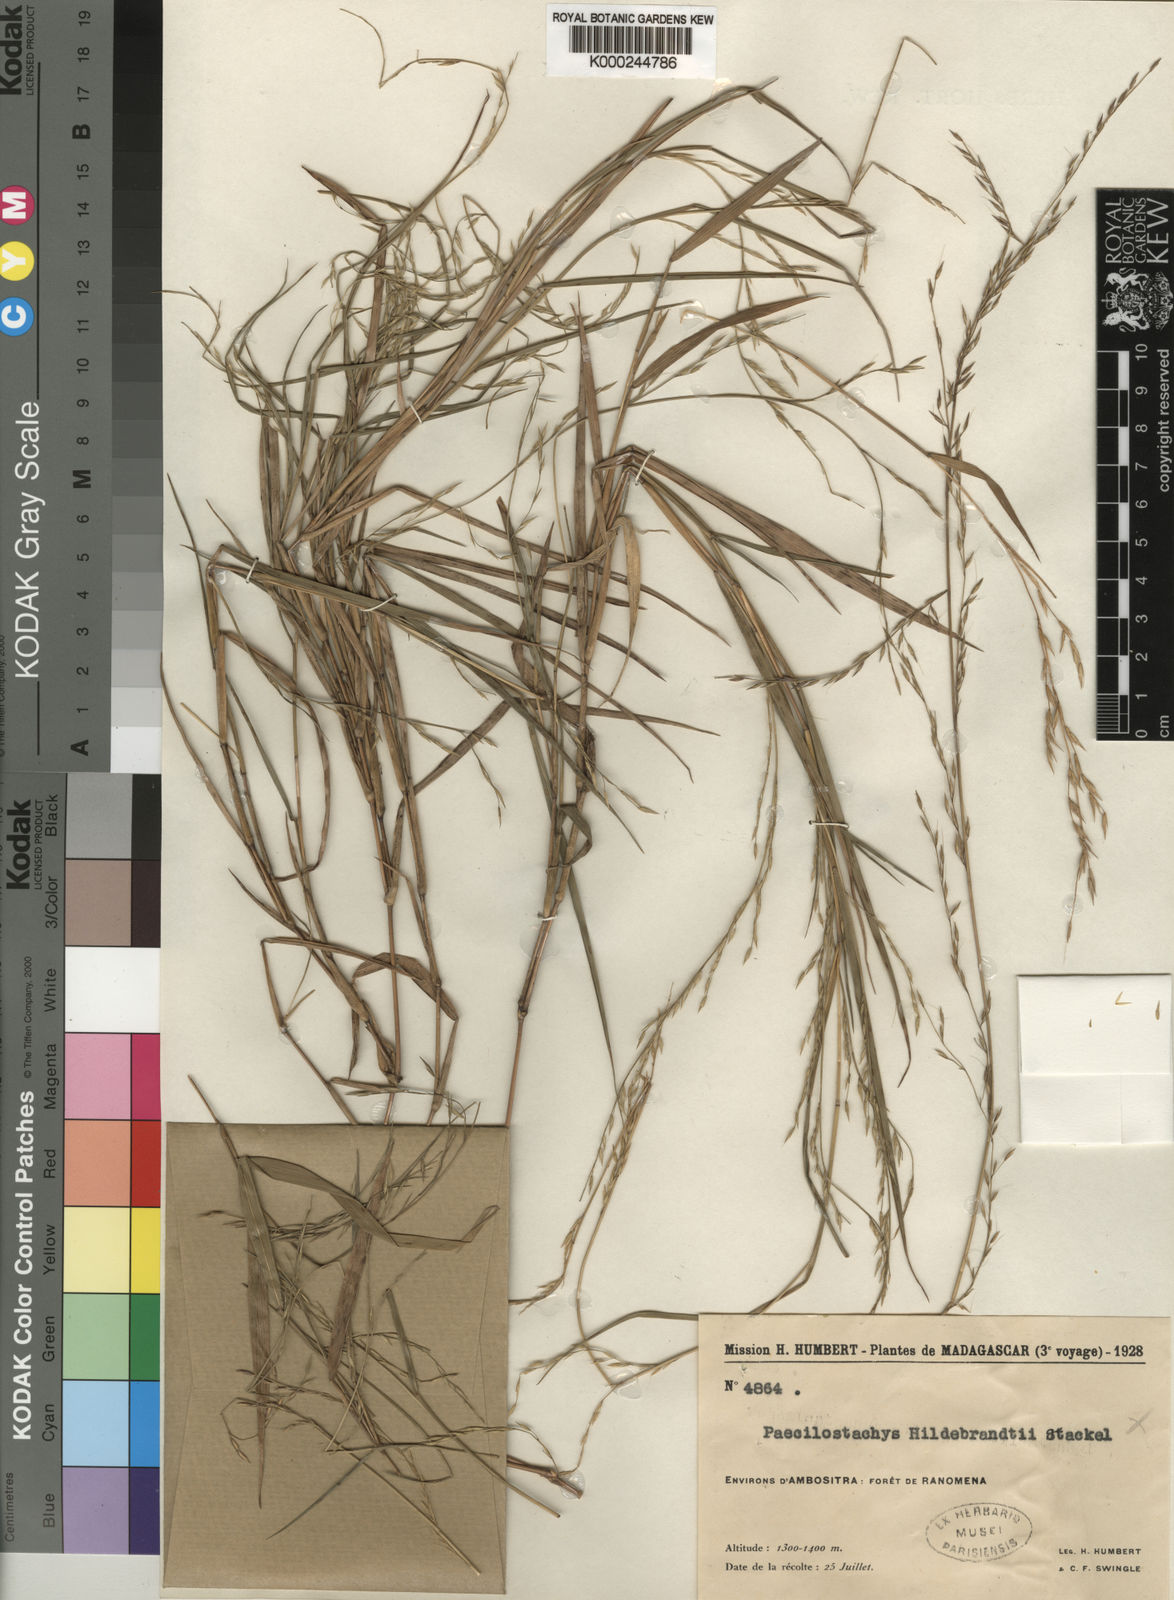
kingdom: Plantae
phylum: Tracheophyta
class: Liliopsida
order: Poales
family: Poaceae
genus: Poecilostachys
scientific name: Poecilostachys ambositrensis
